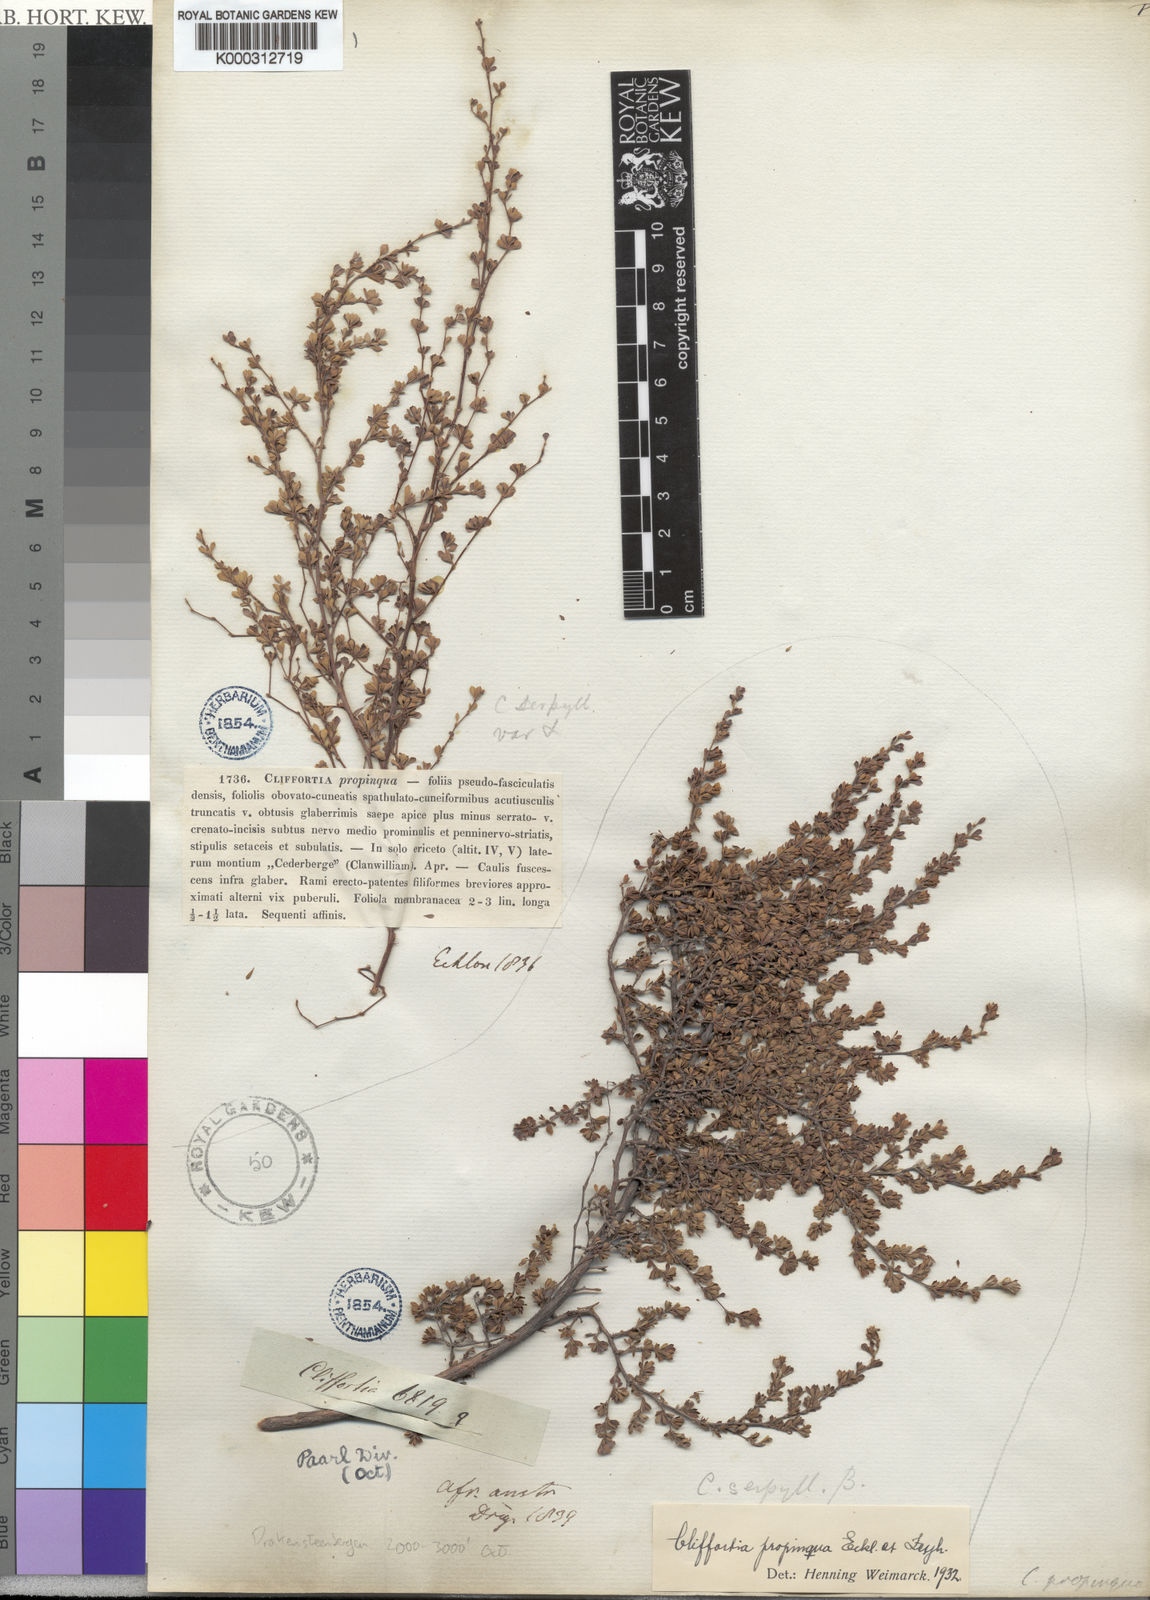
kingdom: Plantae
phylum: Tracheophyta
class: Magnoliopsida
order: Rosales
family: Rosaceae
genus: Cliffortia
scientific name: Cliffortia propinqua
